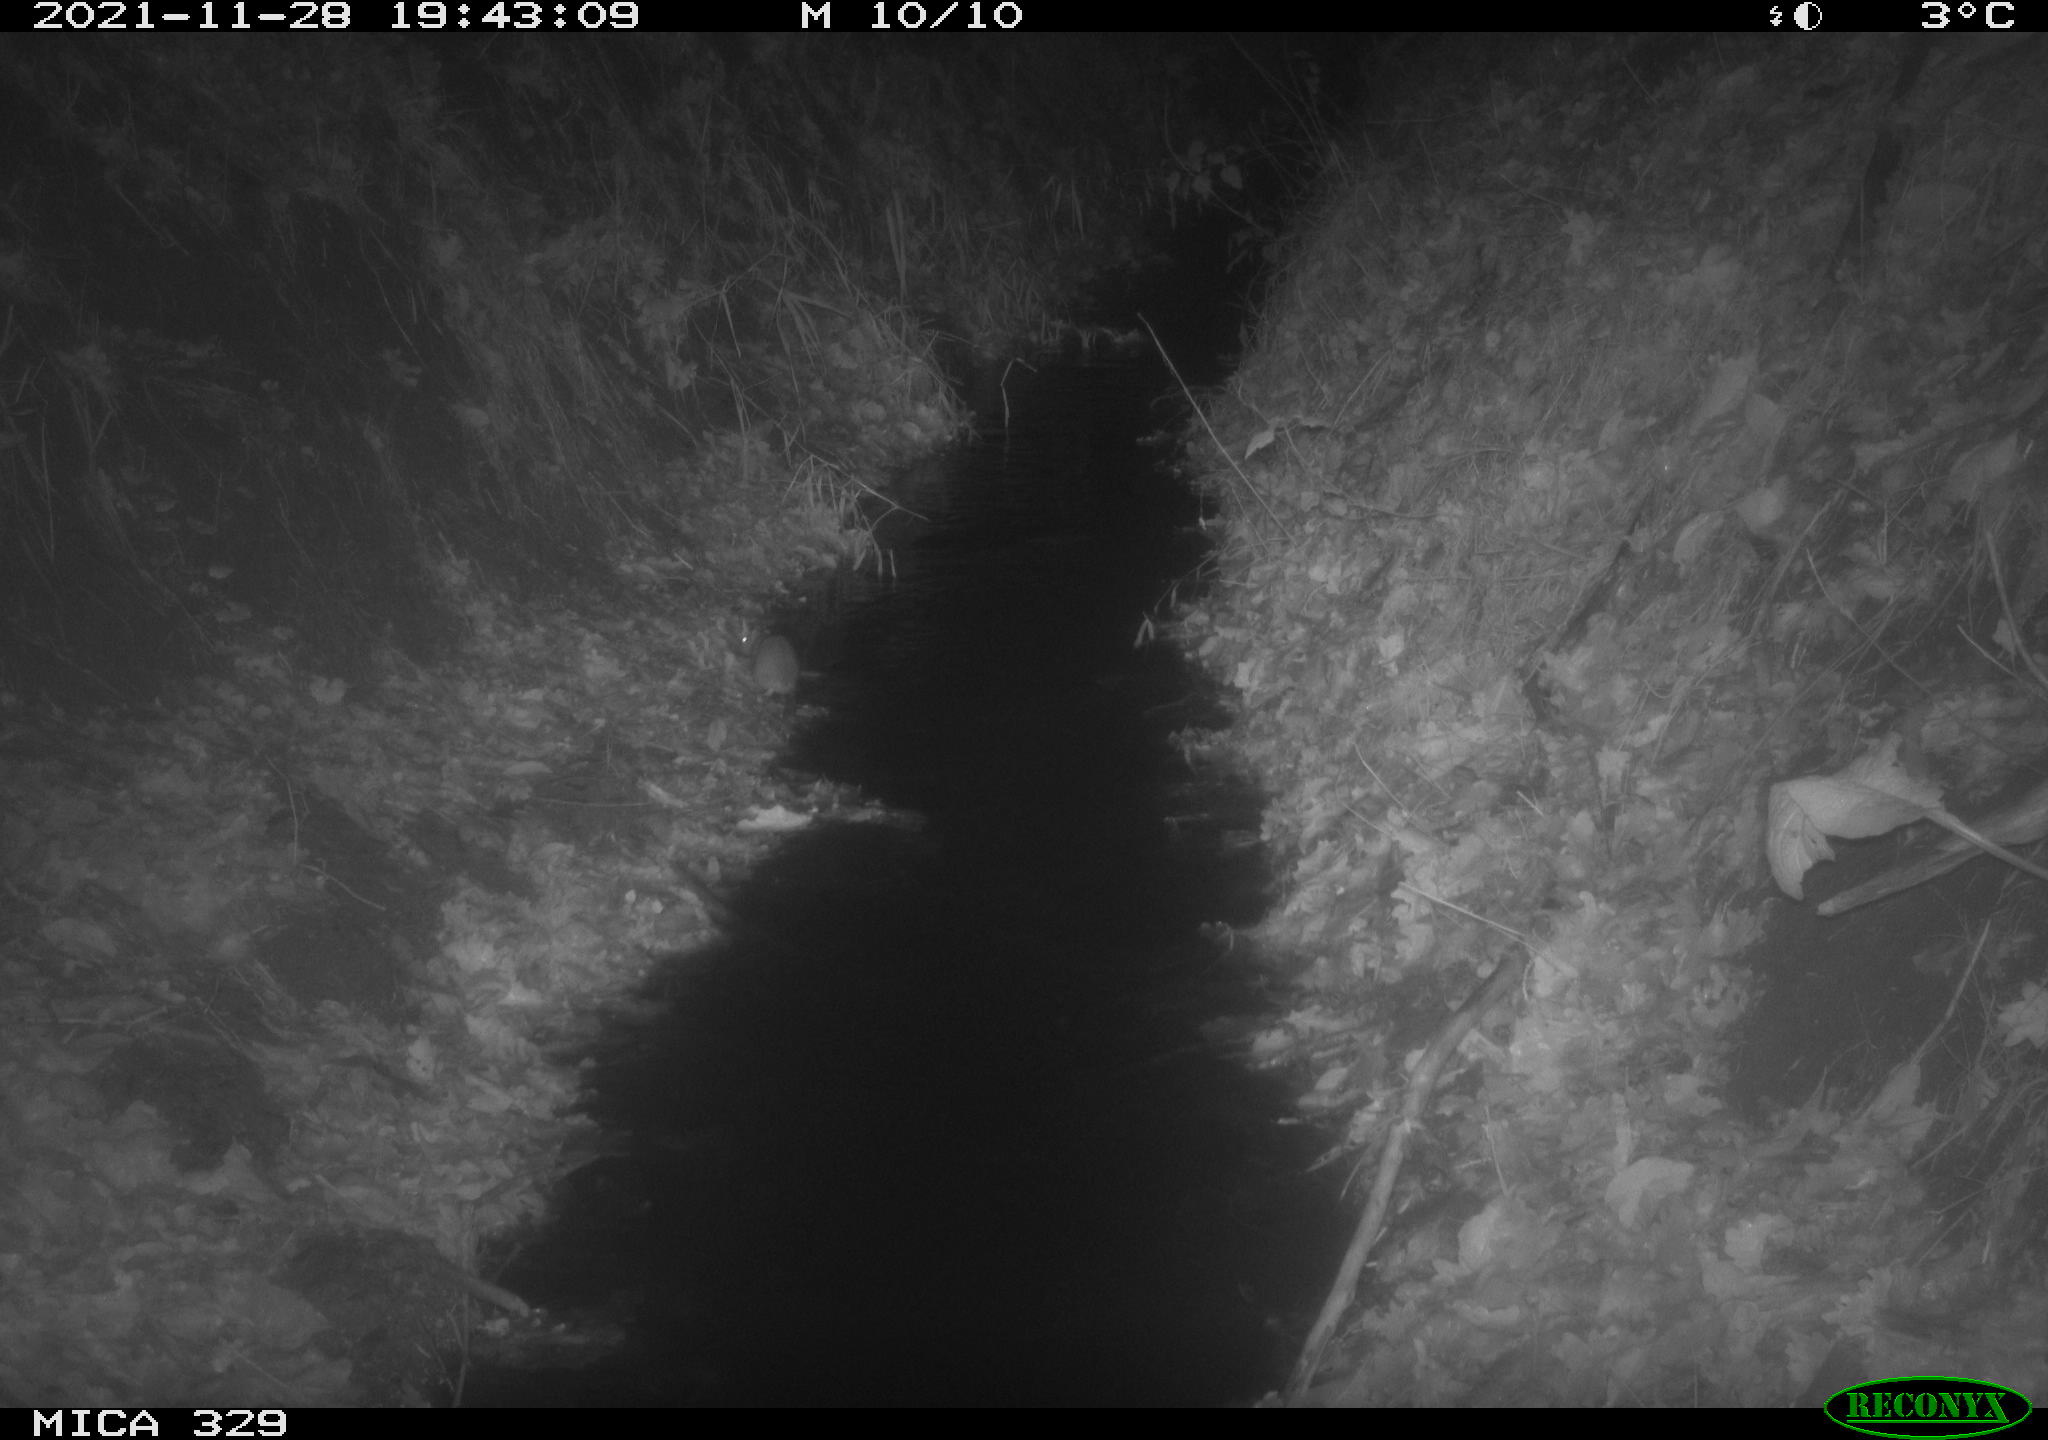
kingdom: Animalia
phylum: Chordata
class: Mammalia
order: Rodentia
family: Muridae
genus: Rattus
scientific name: Rattus norvegicus
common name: Brown rat
